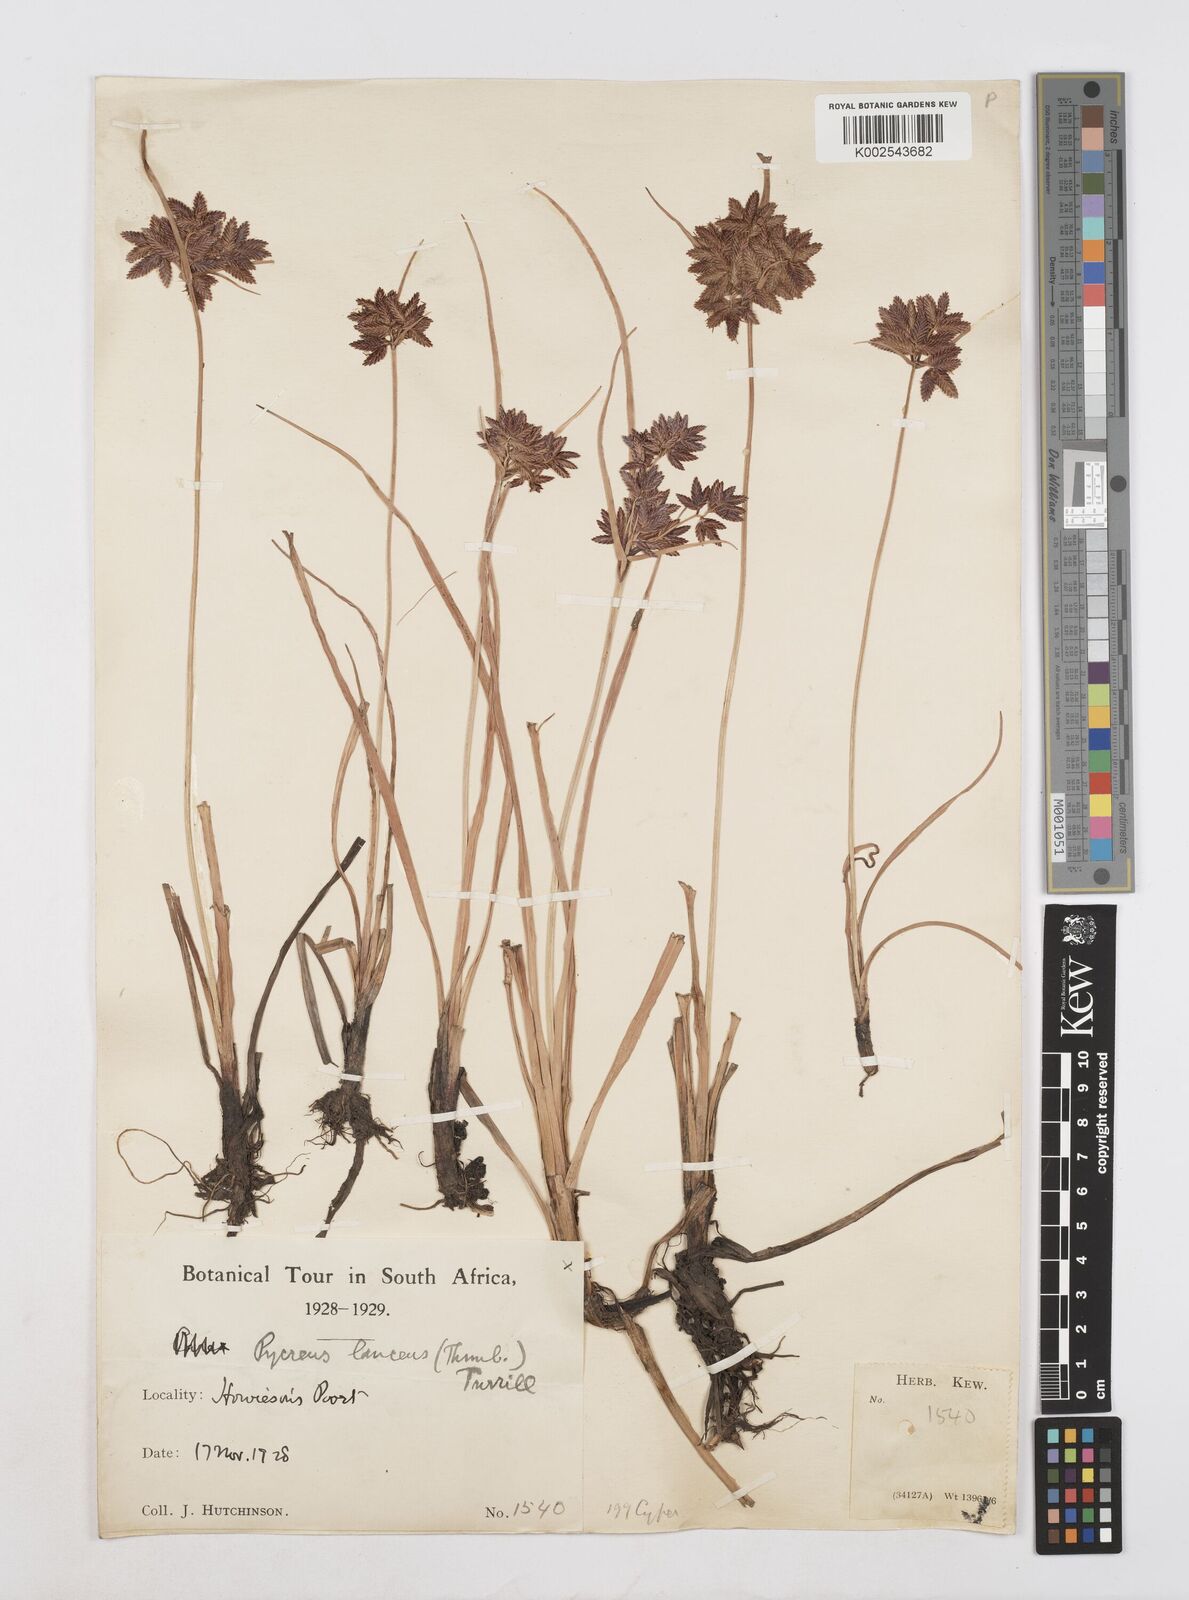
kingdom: Plantae
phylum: Tracheophyta
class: Liliopsida
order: Poales
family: Cyperaceae
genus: Cyperus
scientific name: Cyperus nitidus
